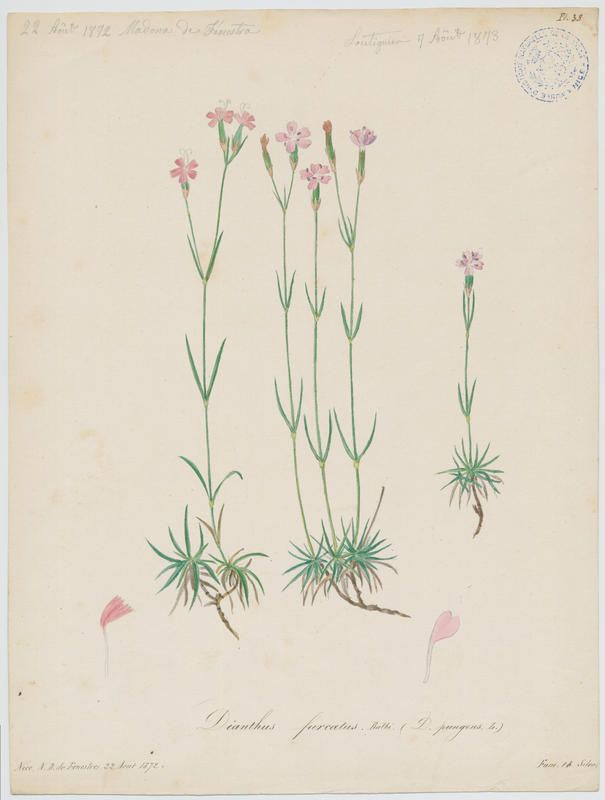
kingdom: Plantae
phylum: Tracheophyta
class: Magnoliopsida
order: Caryophyllales
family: Caryophyllaceae
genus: Dianthus
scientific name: Dianthus furcatus
